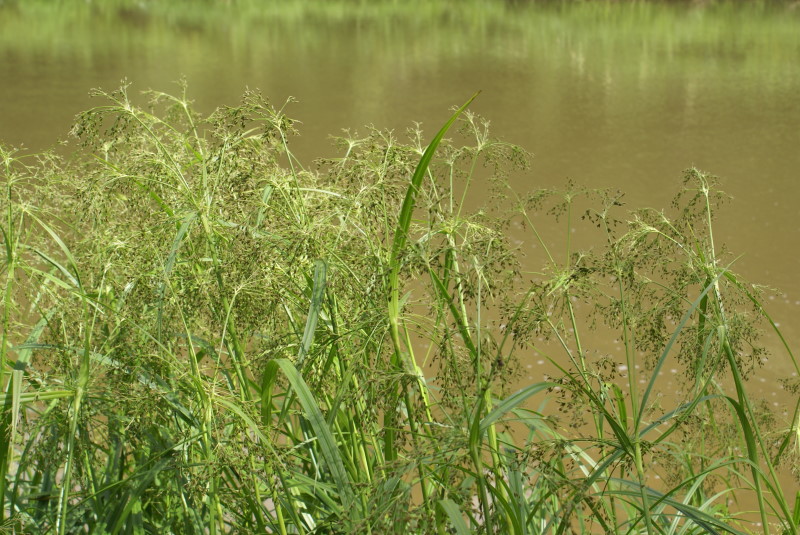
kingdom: Plantae
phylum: Tracheophyta
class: Liliopsida
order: Poales
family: Cyperaceae
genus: Scirpus
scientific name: Scirpus sylvaticus
